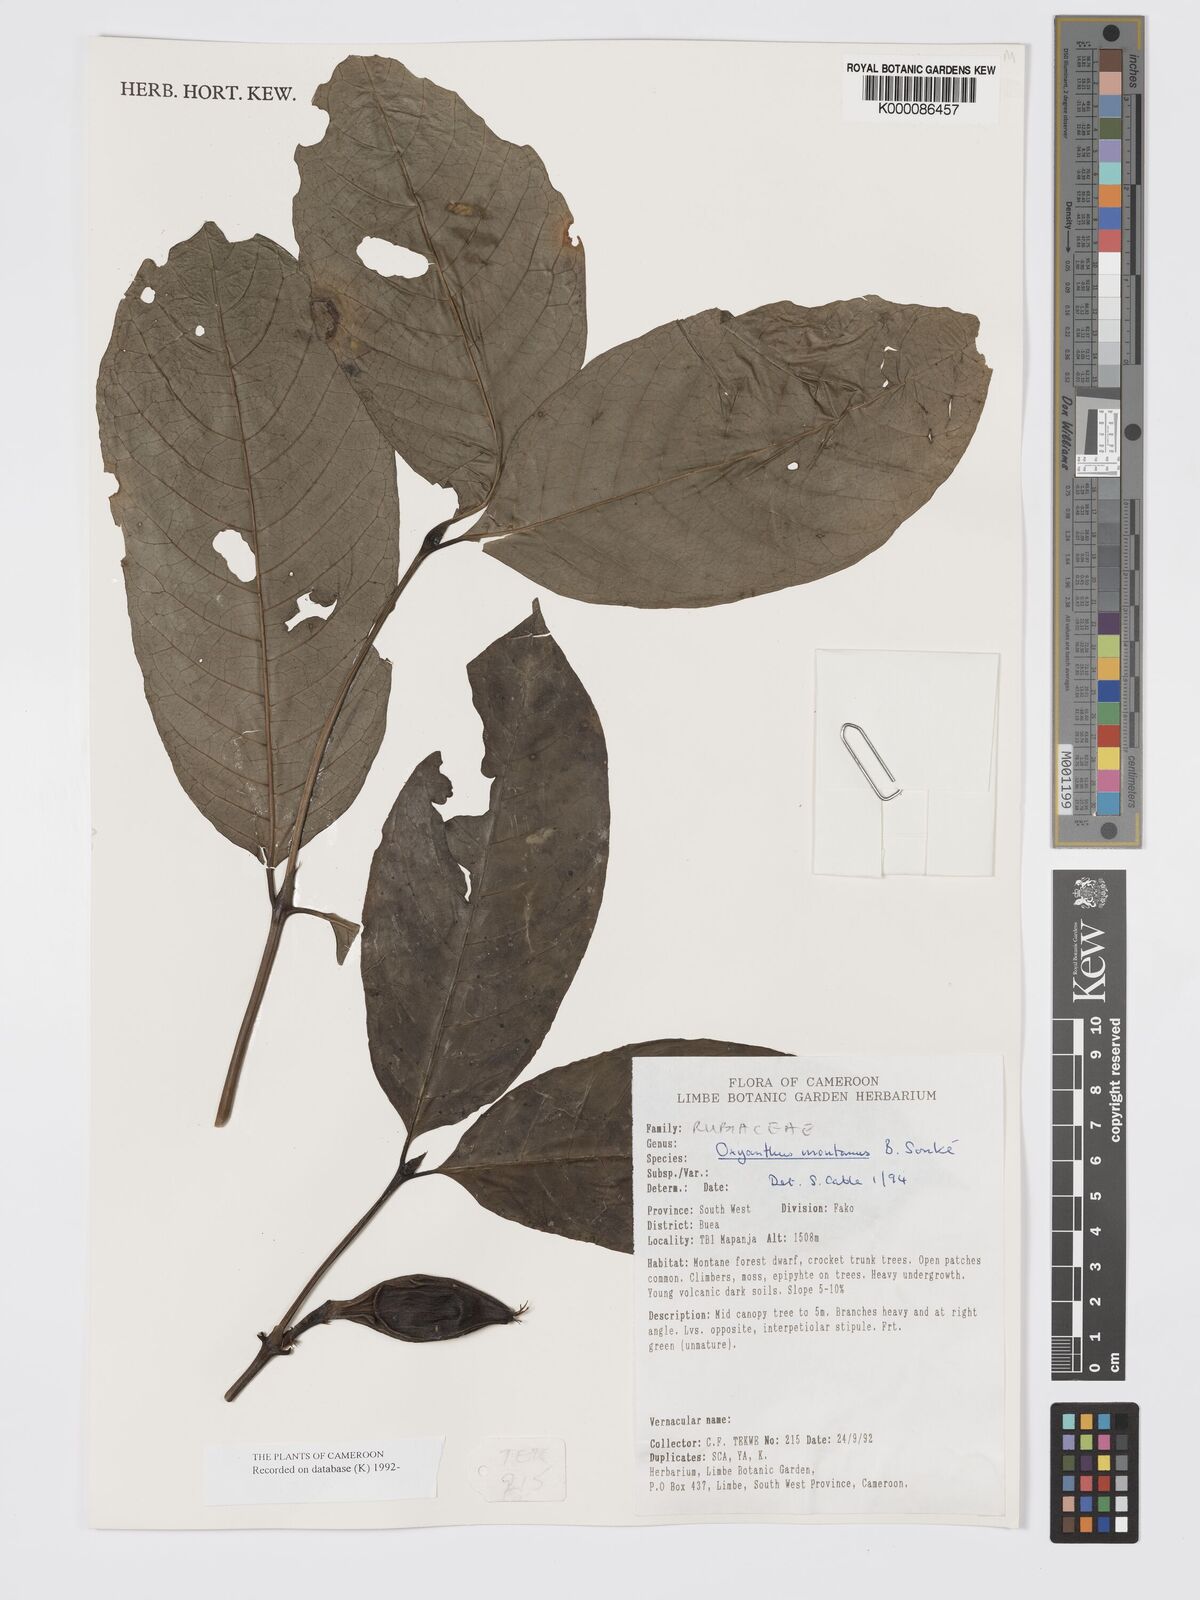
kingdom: Plantae
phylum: Tracheophyta
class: Magnoliopsida
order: Gentianales
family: Rubiaceae
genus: Oxyanthus
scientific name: Oxyanthus
